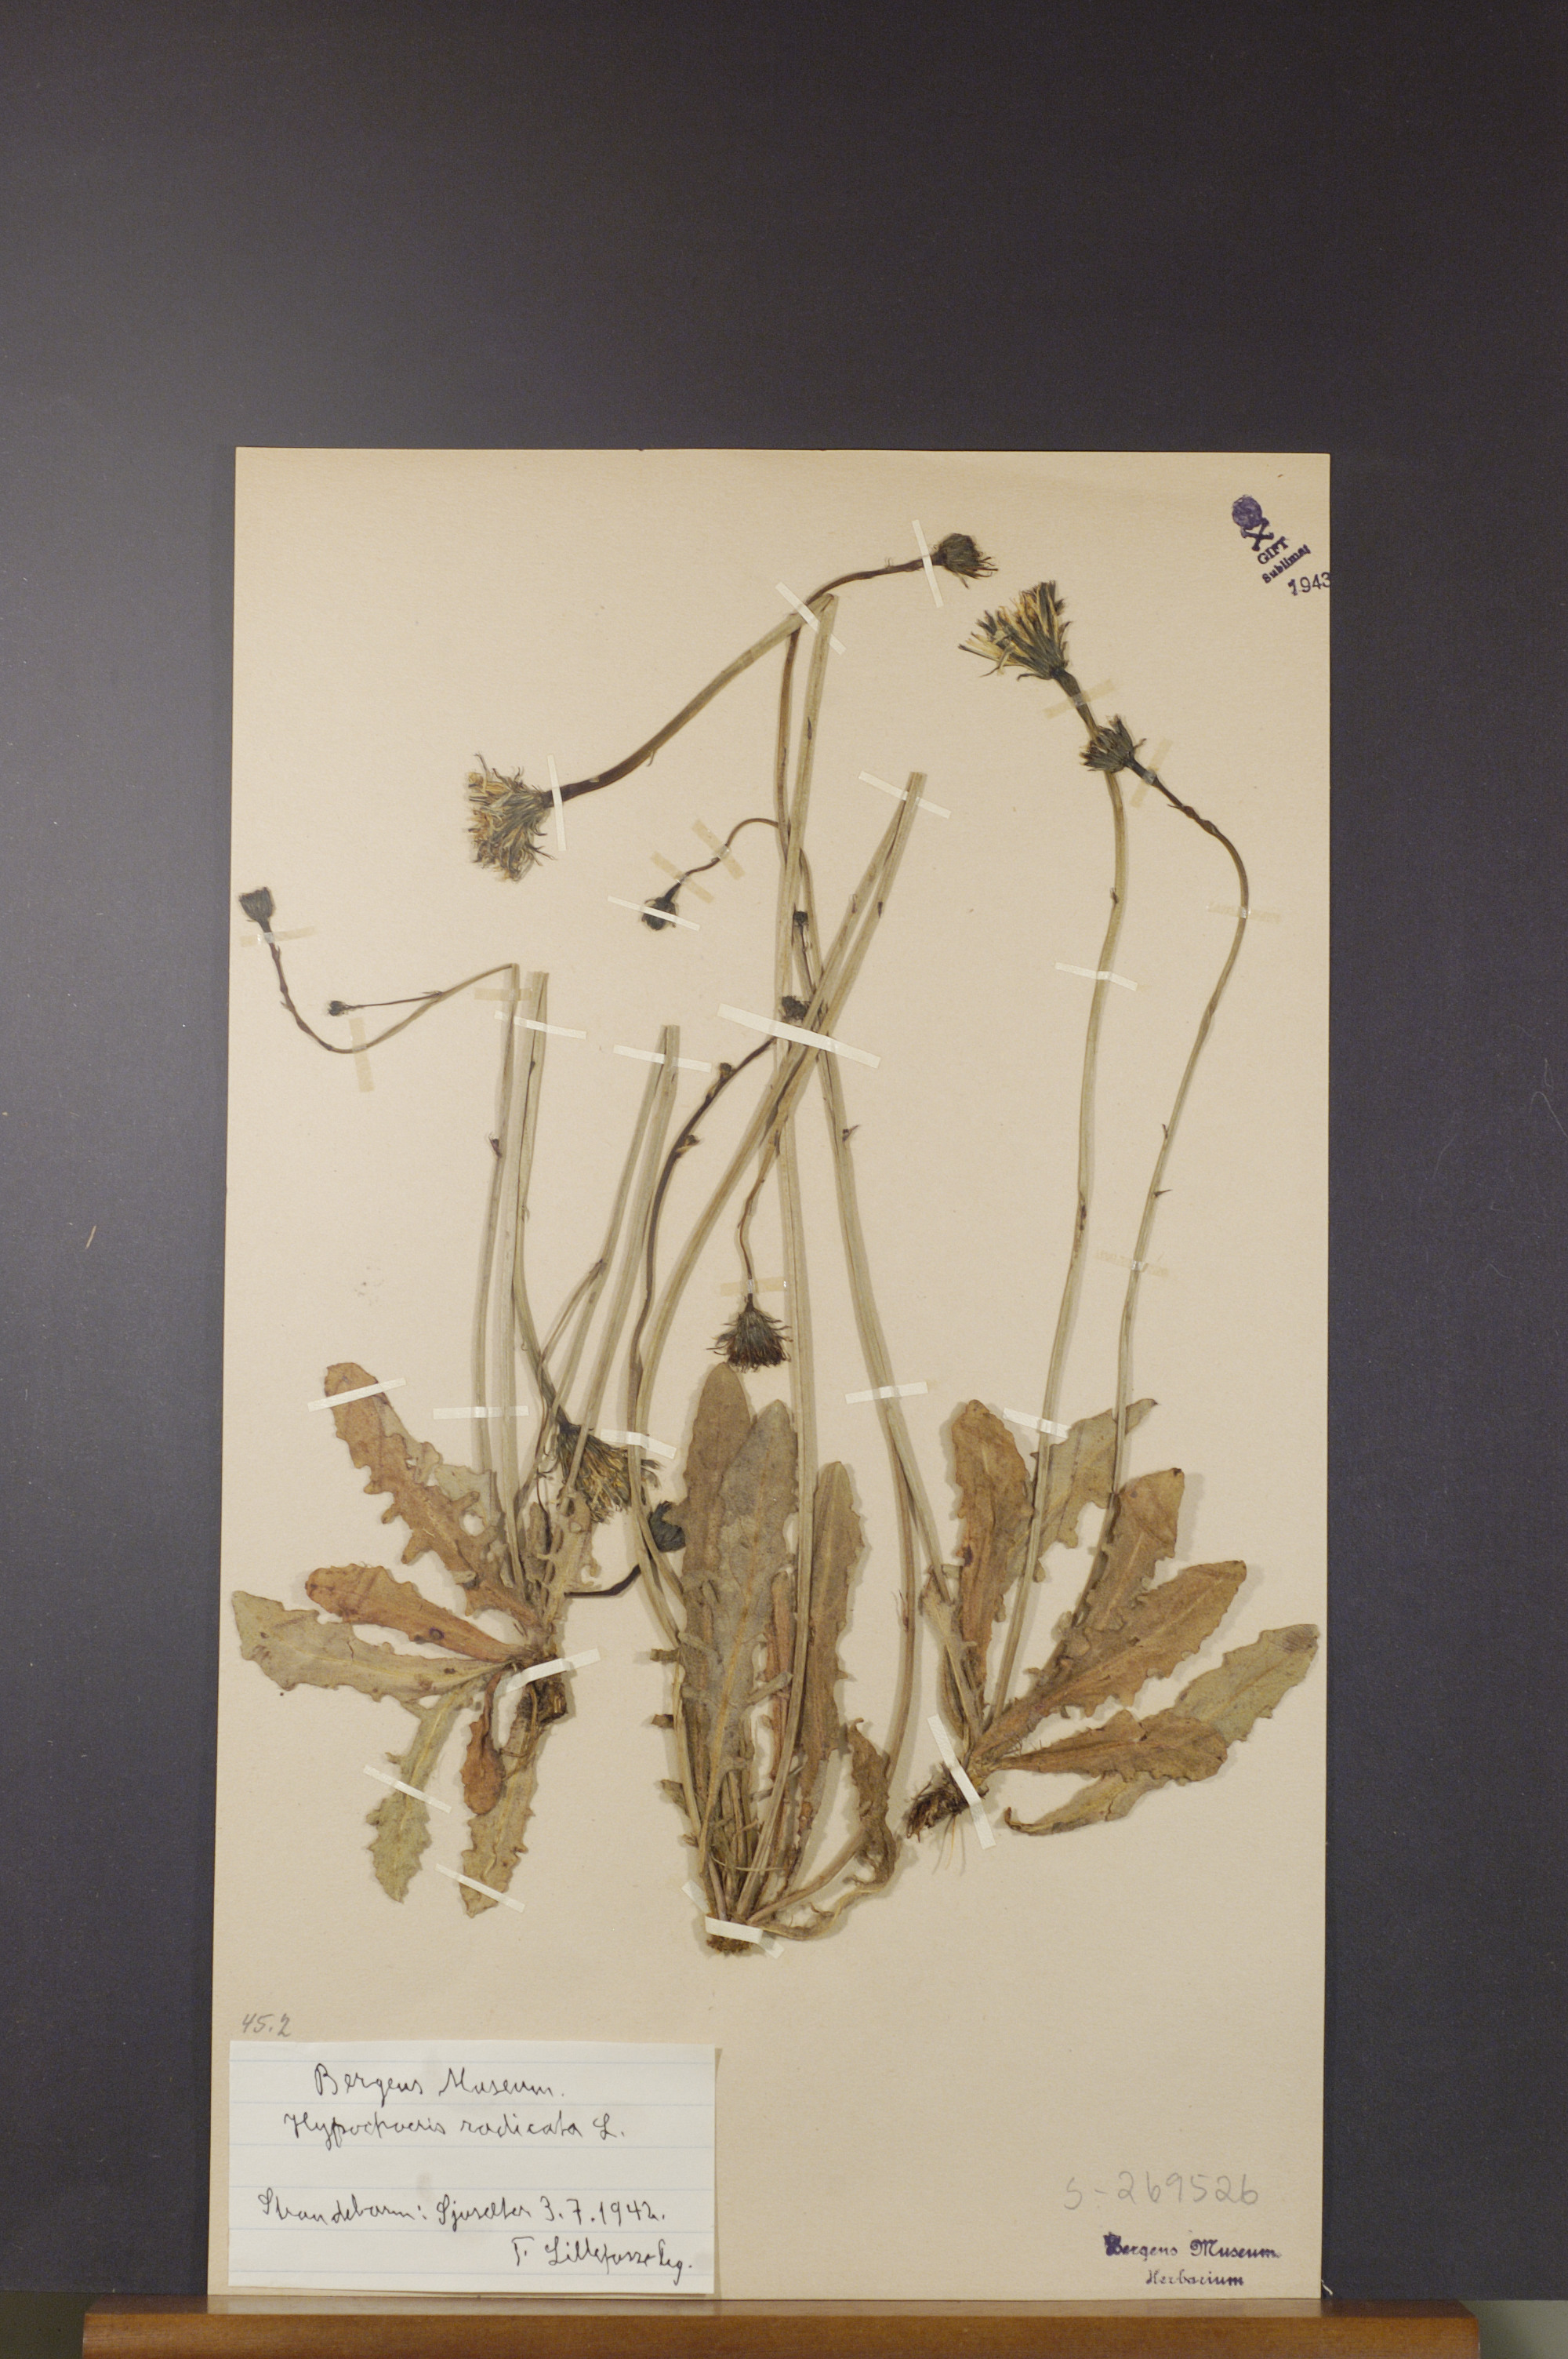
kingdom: Plantae
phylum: Tracheophyta
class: Magnoliopsida
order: Asterales
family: Asteraceae
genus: Hypochaeris
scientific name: Hypochaeris radicata
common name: Flatweed
